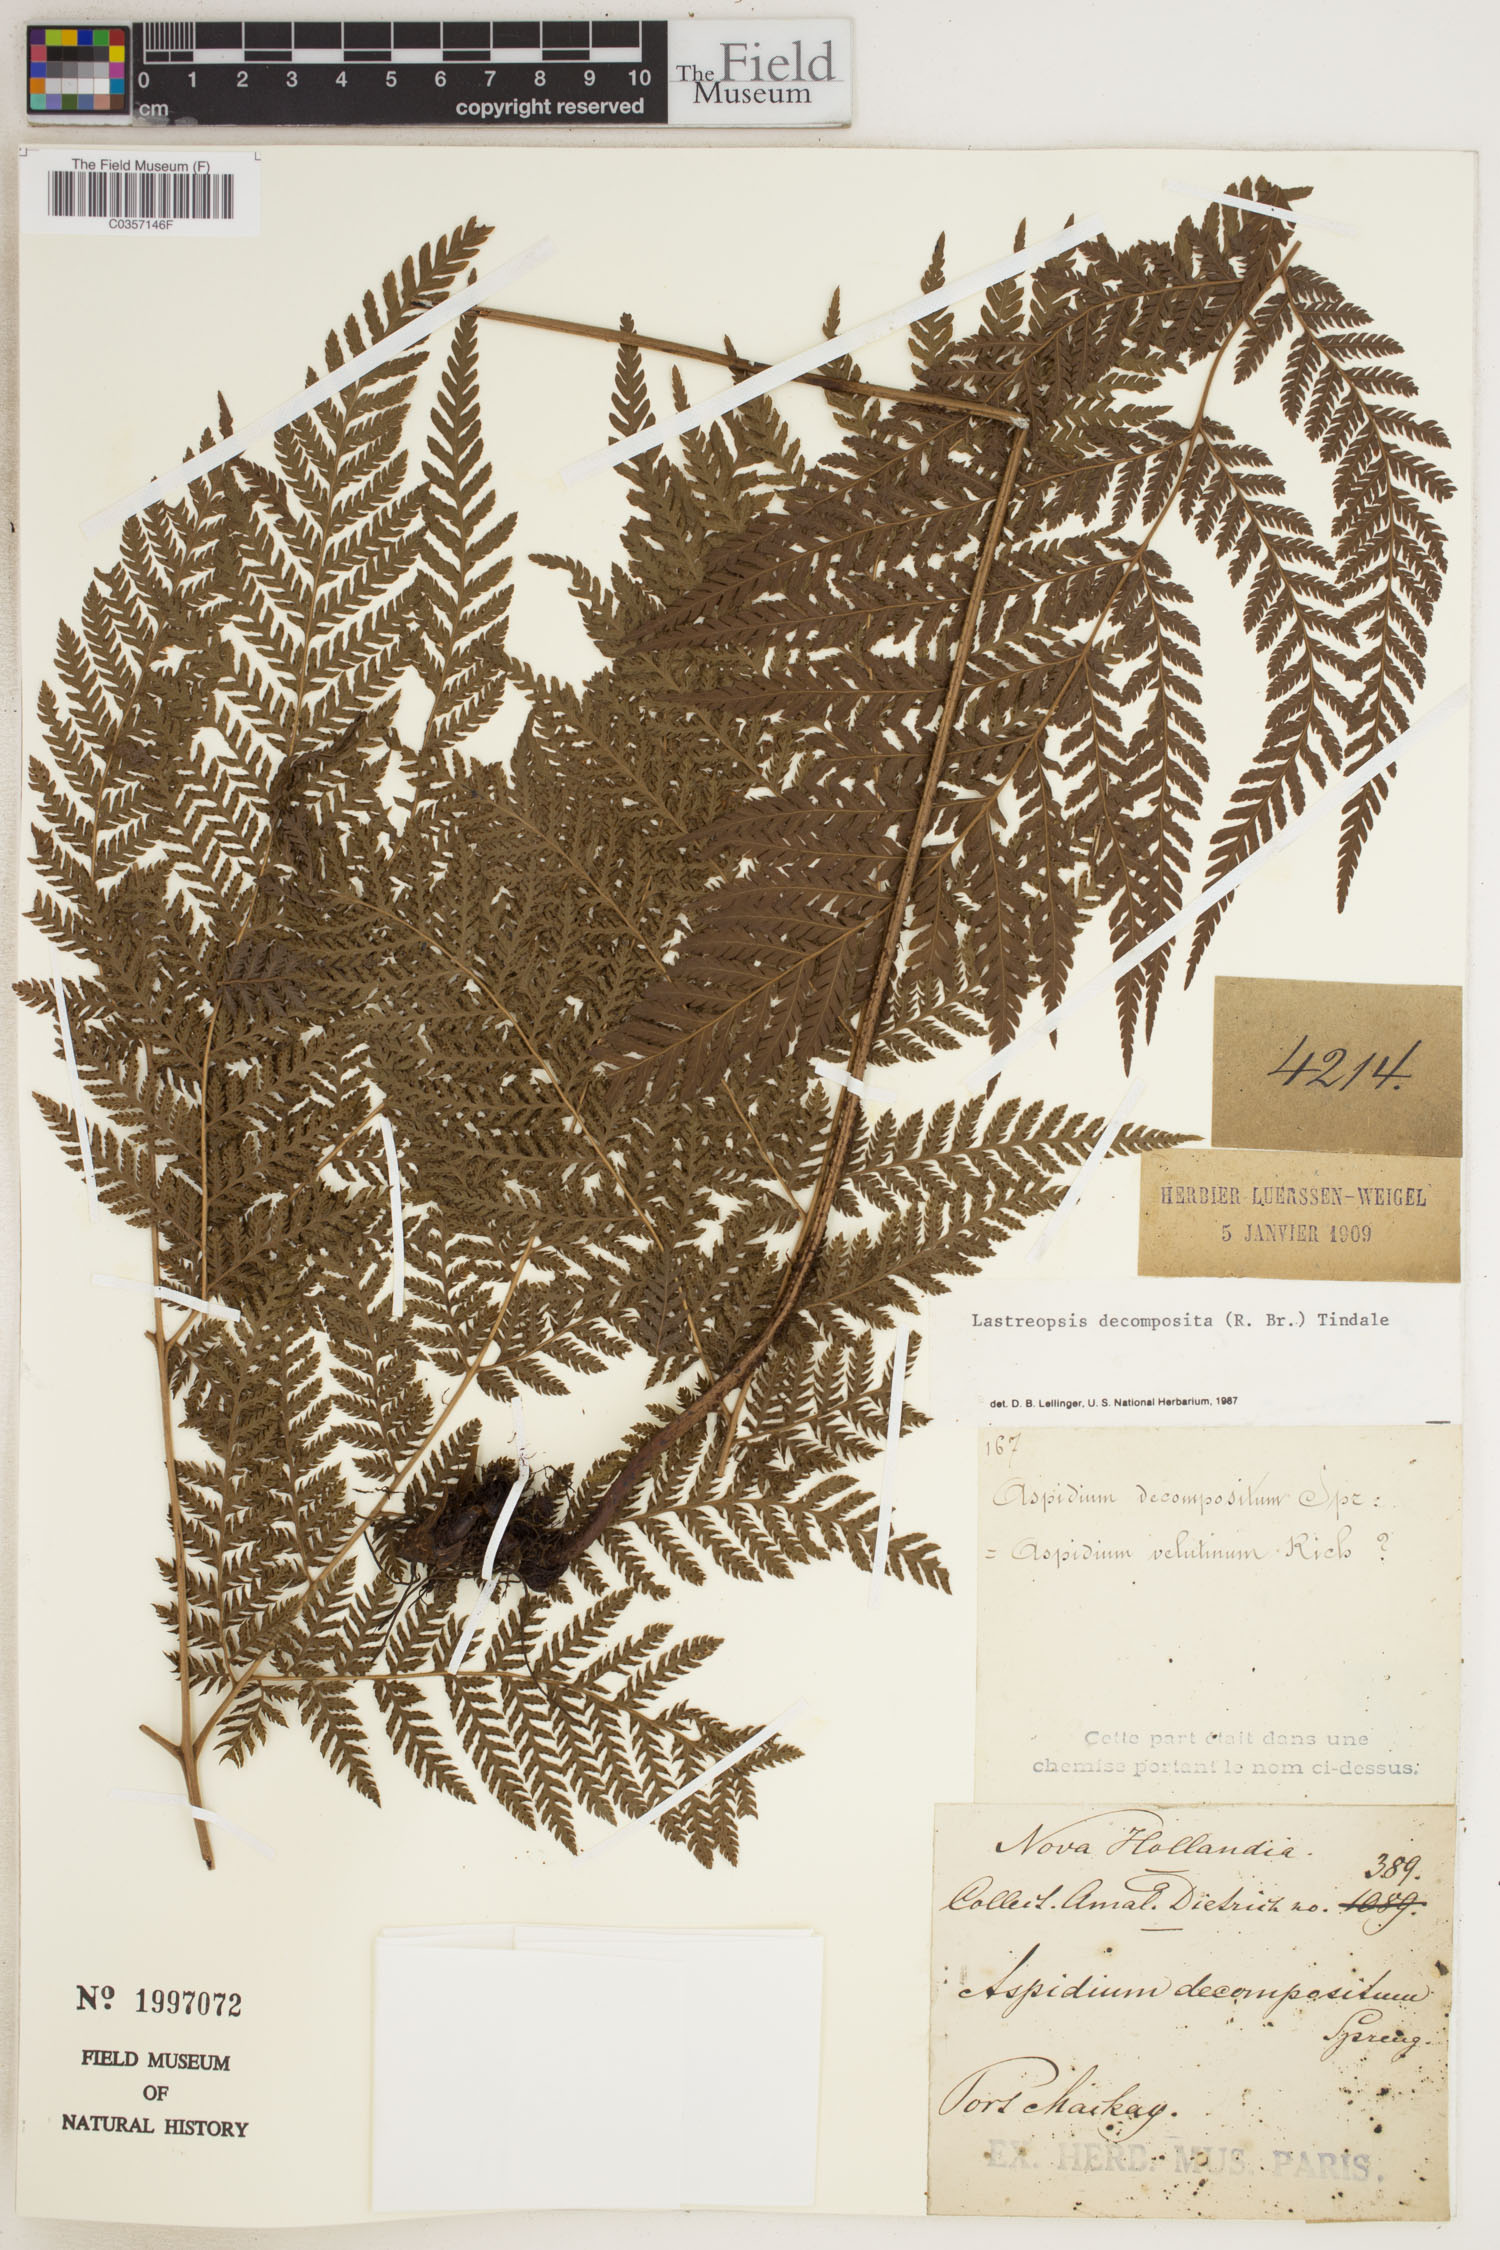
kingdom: Plantae
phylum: Tracheophyta
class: Polypodiopsida
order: Polypodiales
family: Dryopteridaceae
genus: Lastreopsis
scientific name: Lastreopsis decomposita
